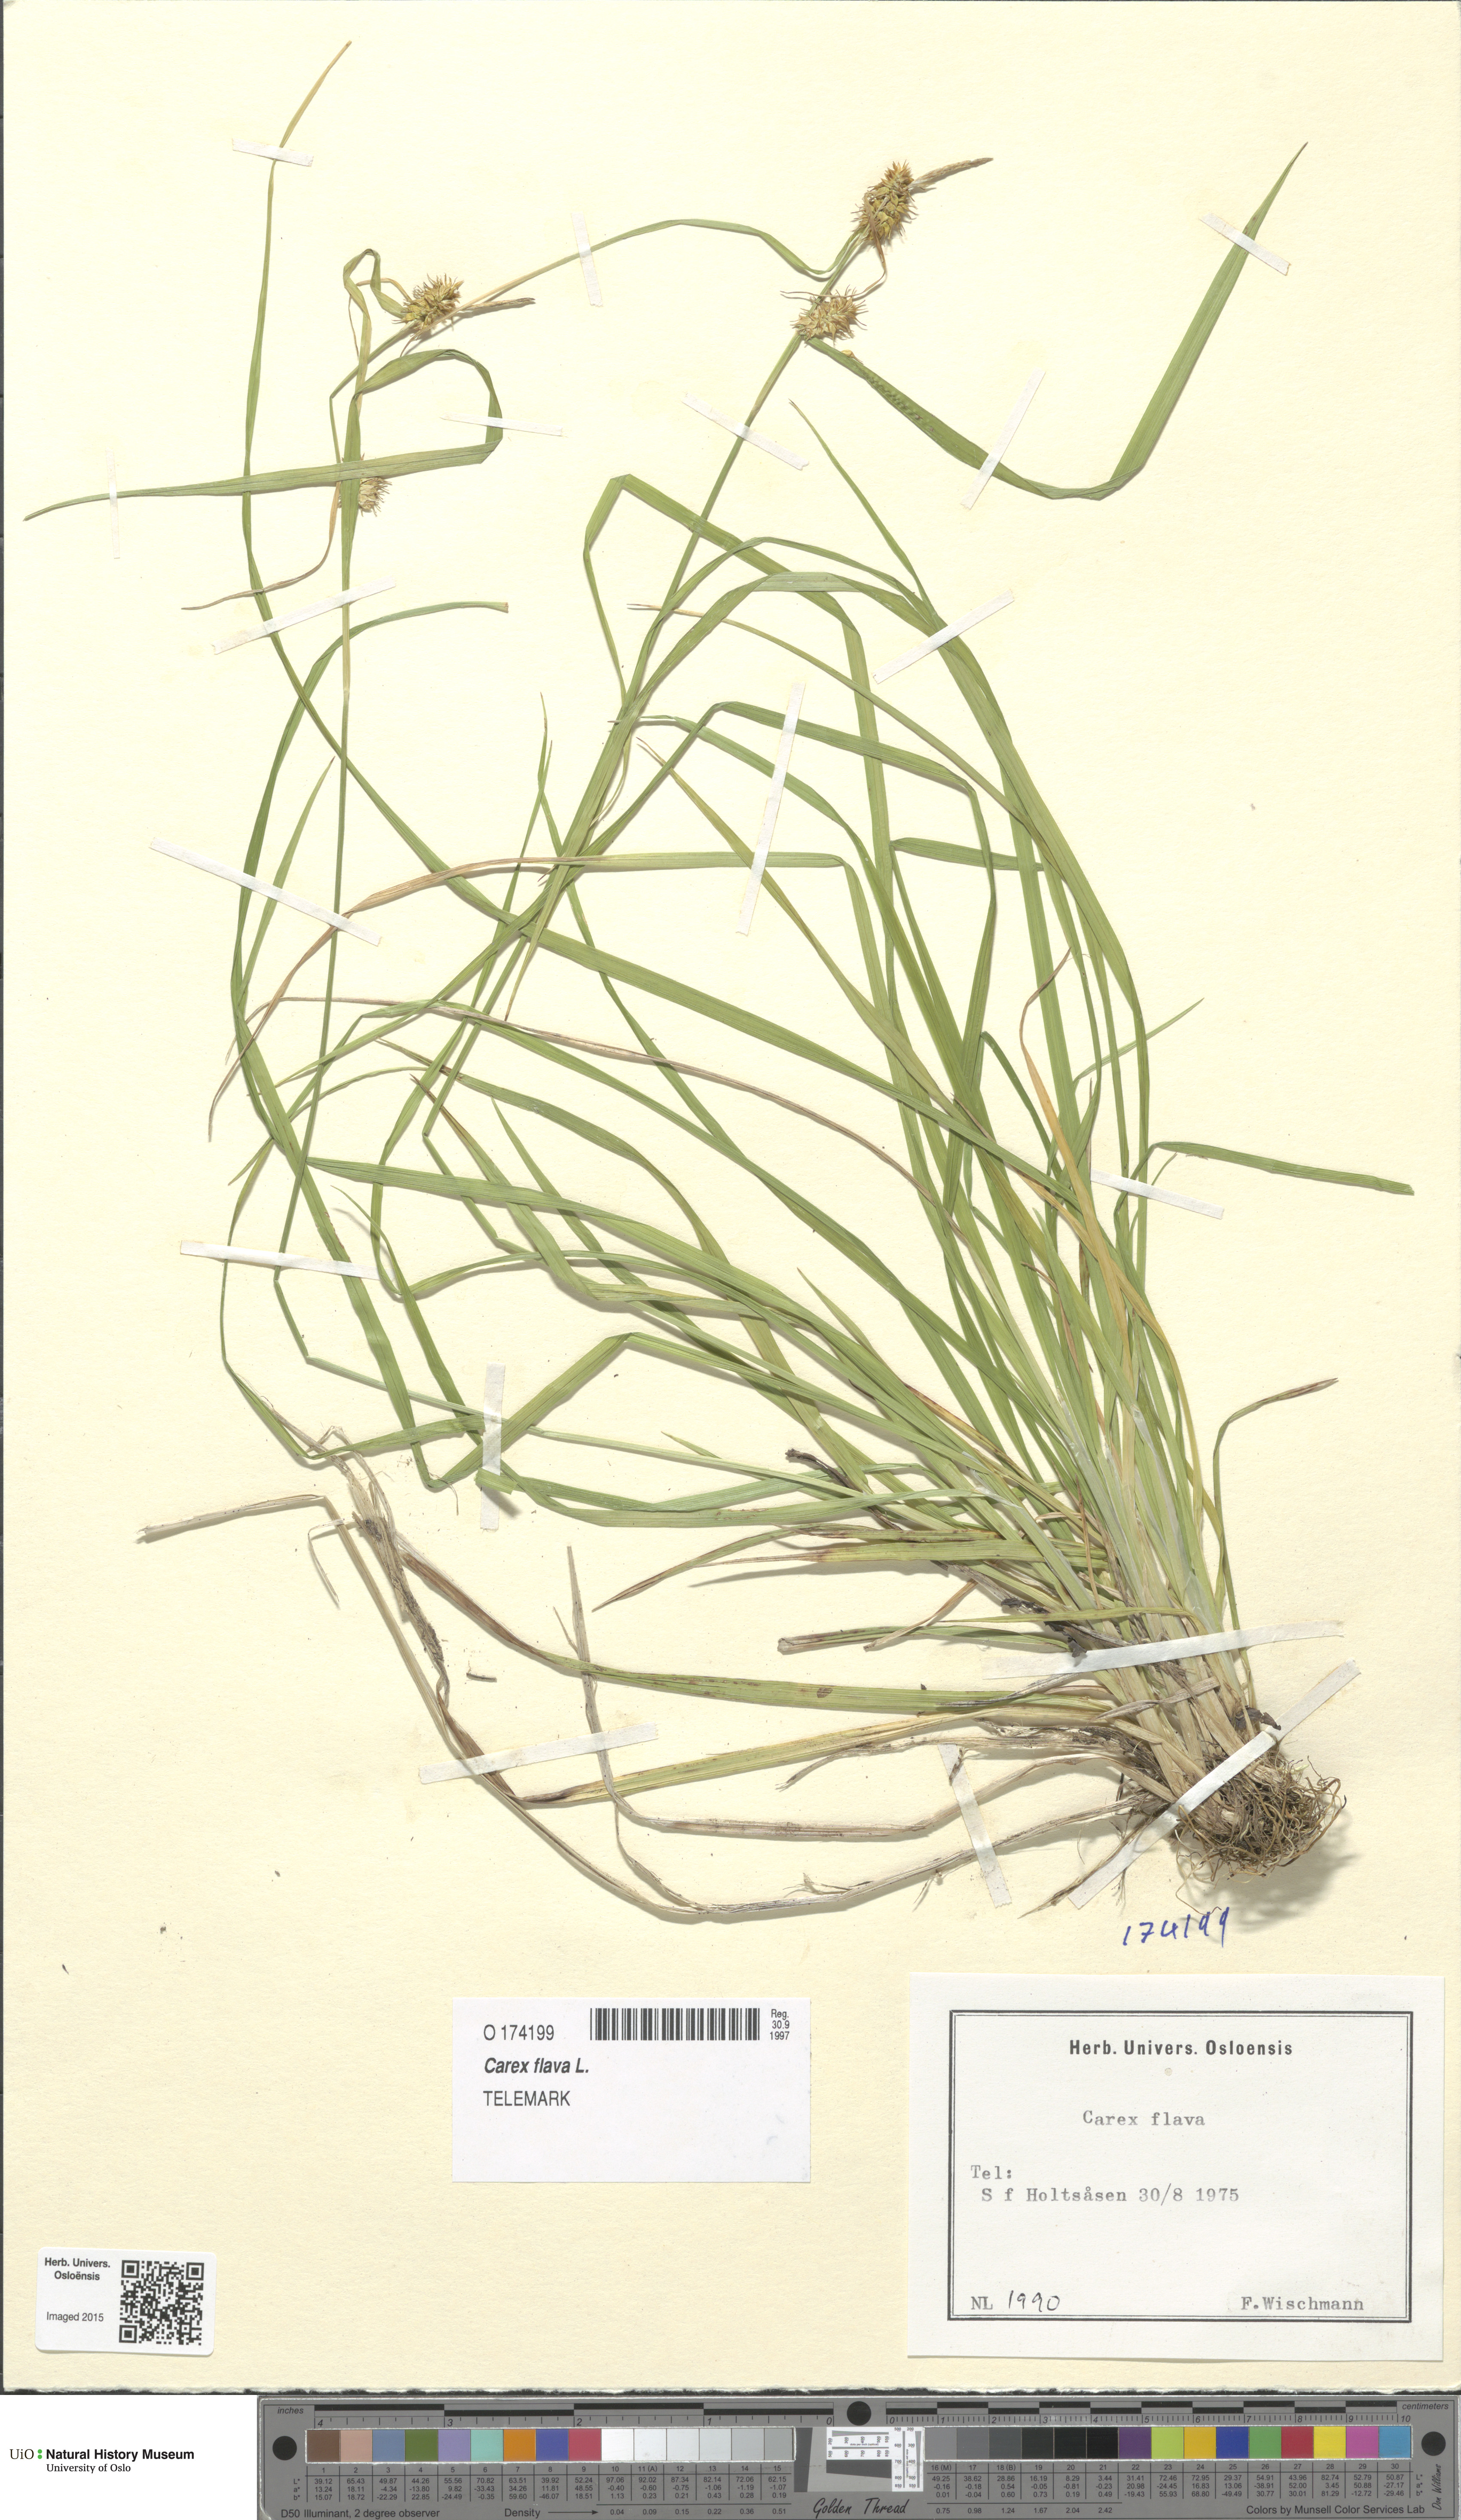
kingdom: Plantae
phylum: Tracheophyta
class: Liliopsida
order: Poales
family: Cyperaceae
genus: Carex
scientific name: Carex flava
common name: Large yellow-sedge
